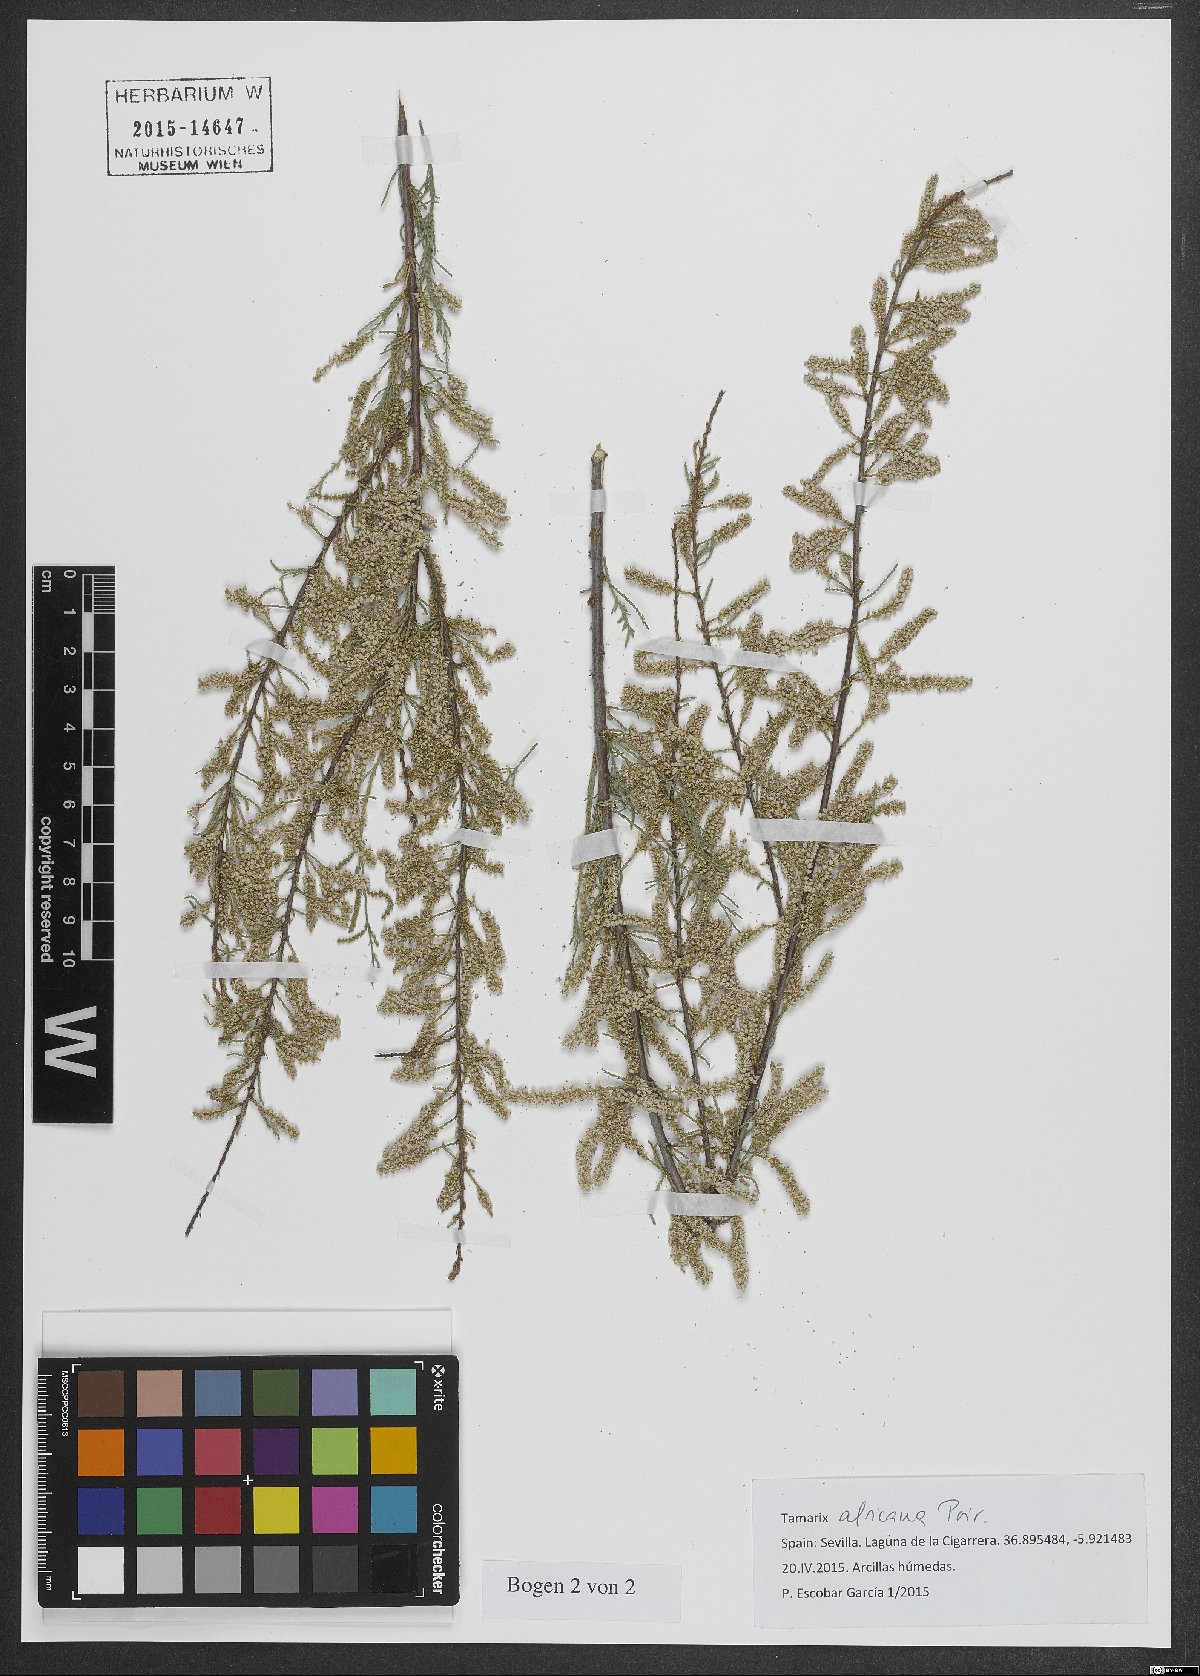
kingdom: Plantae
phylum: Tracheophyta
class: Magnoliopsida
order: Caryophyllales
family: Tamaricaceae
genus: Tamarix
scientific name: Tamarix africana
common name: African tamarisk
